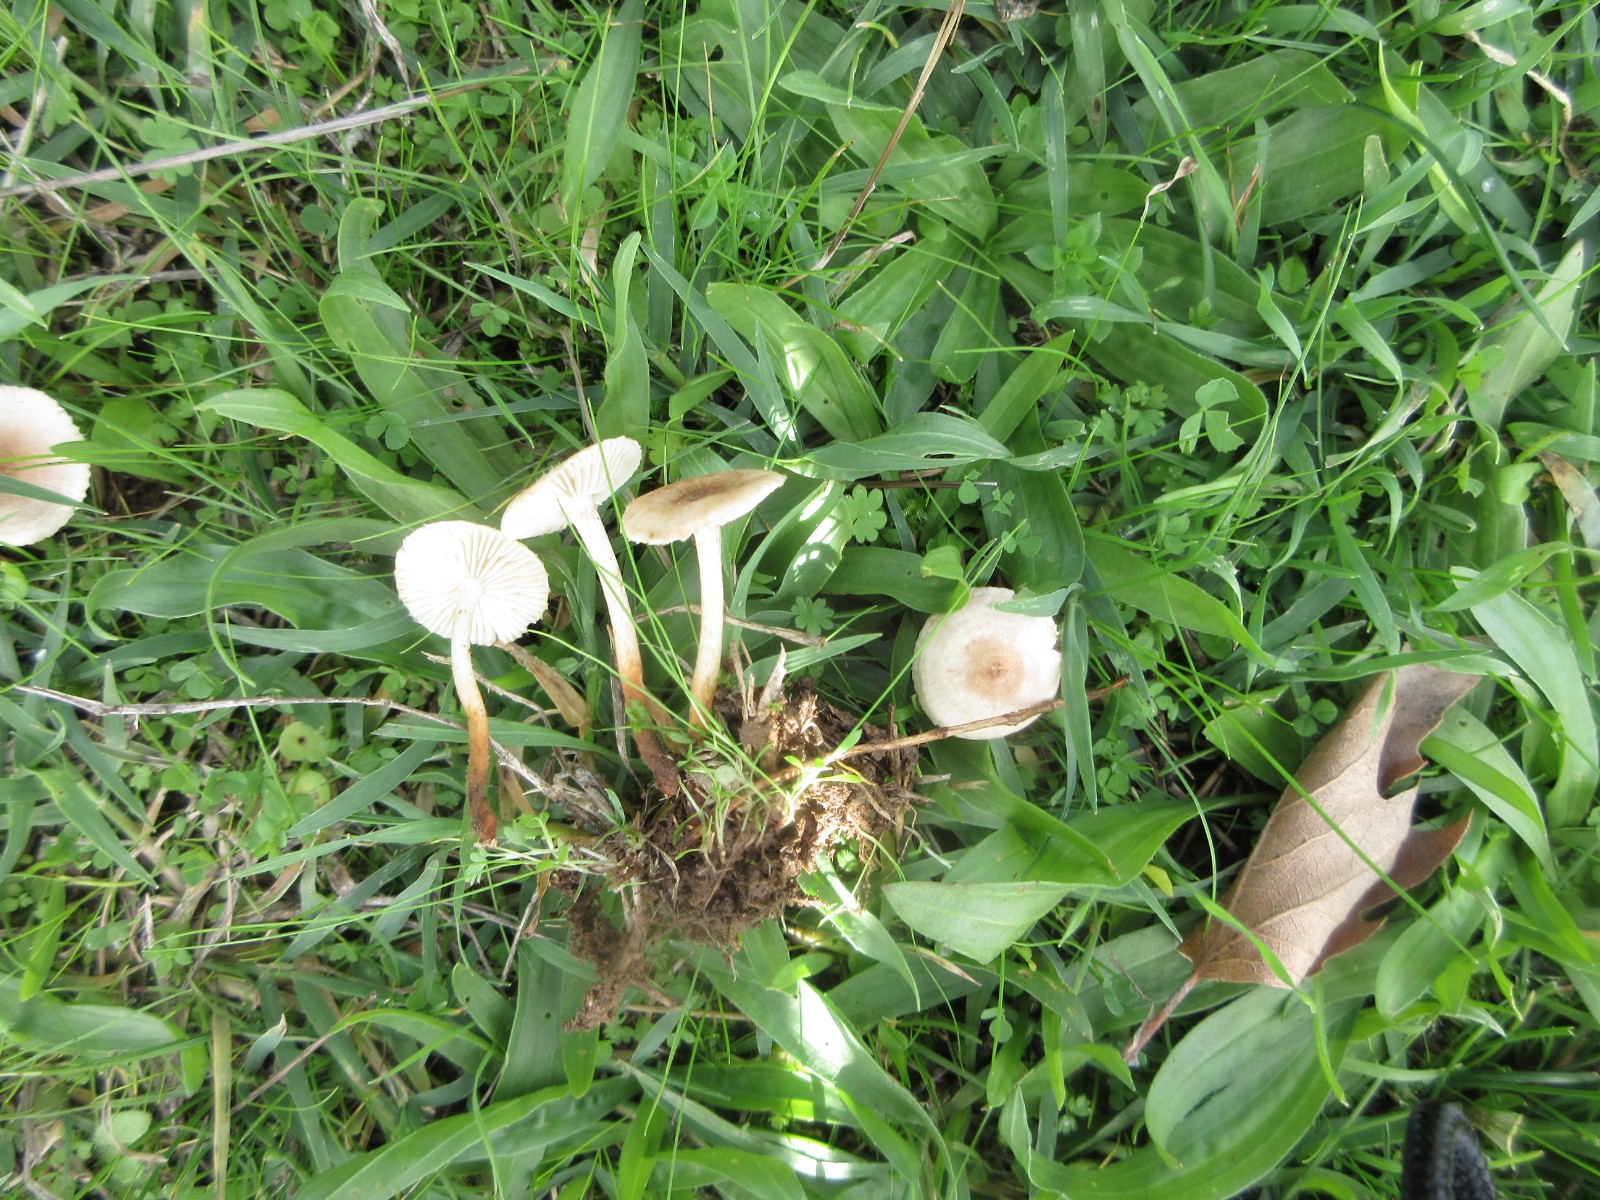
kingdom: Fungi
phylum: Basidiomycota
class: Agaricomycetes
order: Agaricales
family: Marasmiaceae
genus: Crinipellis
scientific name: Crinipellis pedemontana
